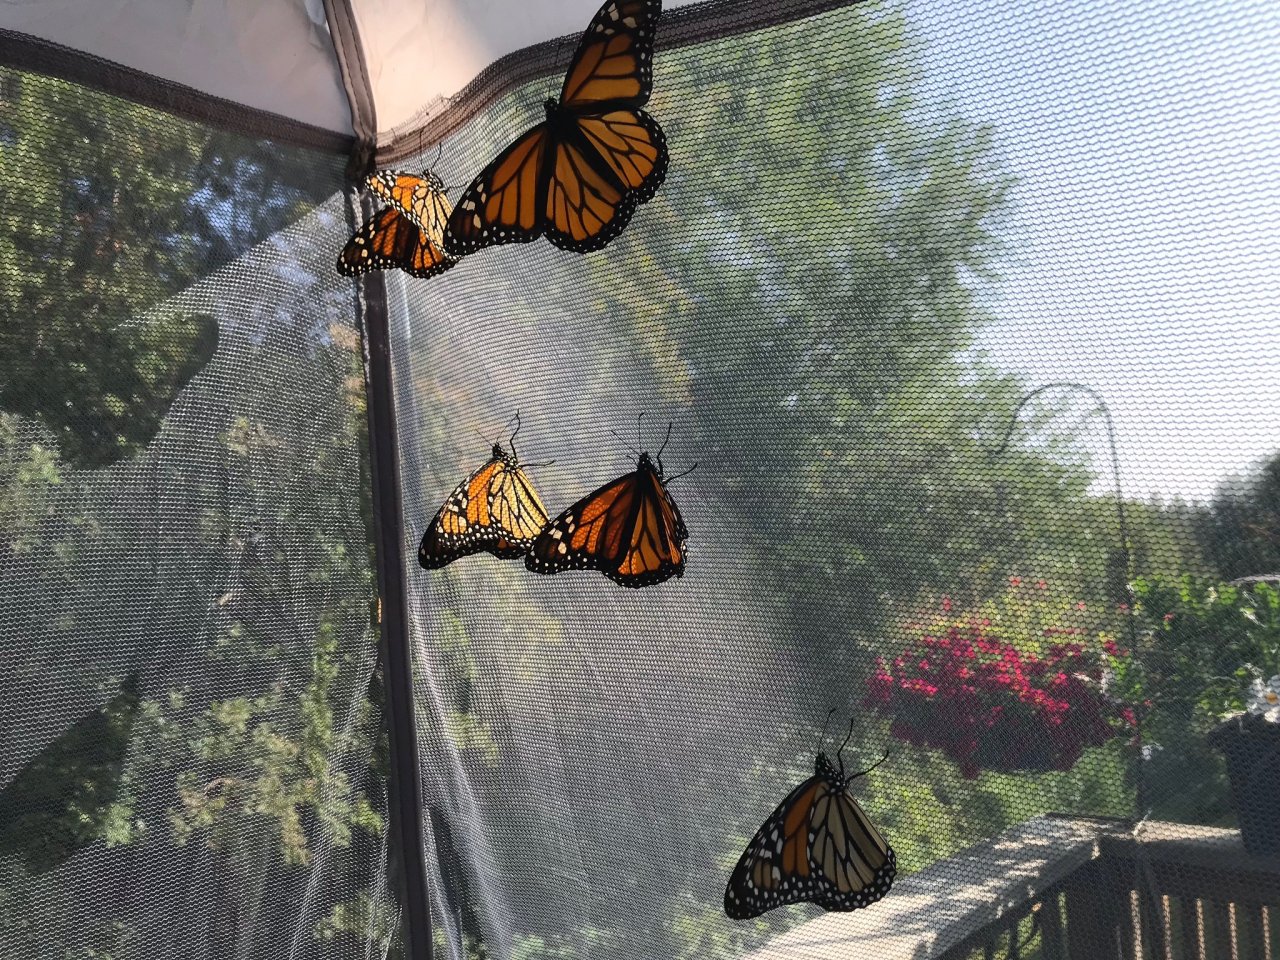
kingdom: Animalia
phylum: Arthropoda
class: Insecta
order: Lepidoptera
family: Nymphalidae
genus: Danaus
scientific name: Danaus plexippus
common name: Monarch
